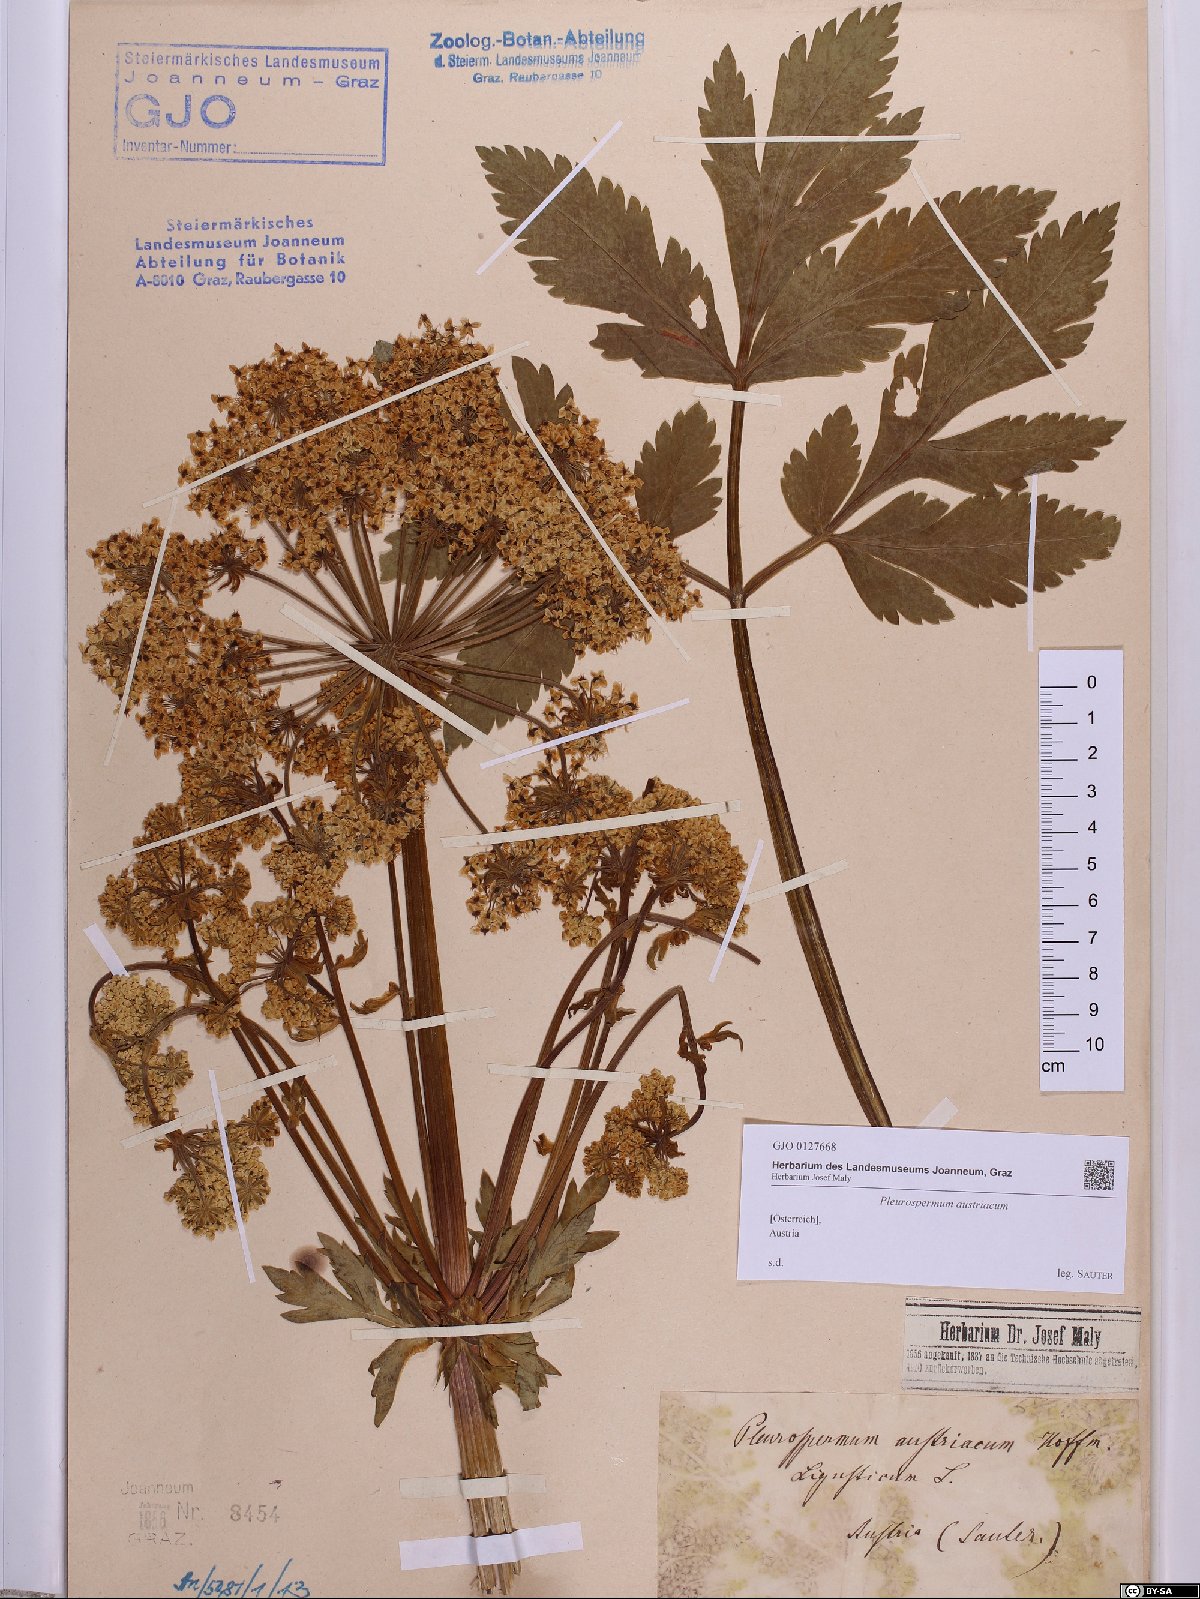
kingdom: Plantae
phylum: Tracheophyta
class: Magnoliopsida
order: Apiales
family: Apiaceae
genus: Pleurospermum
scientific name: Pleurospermum austriacum
